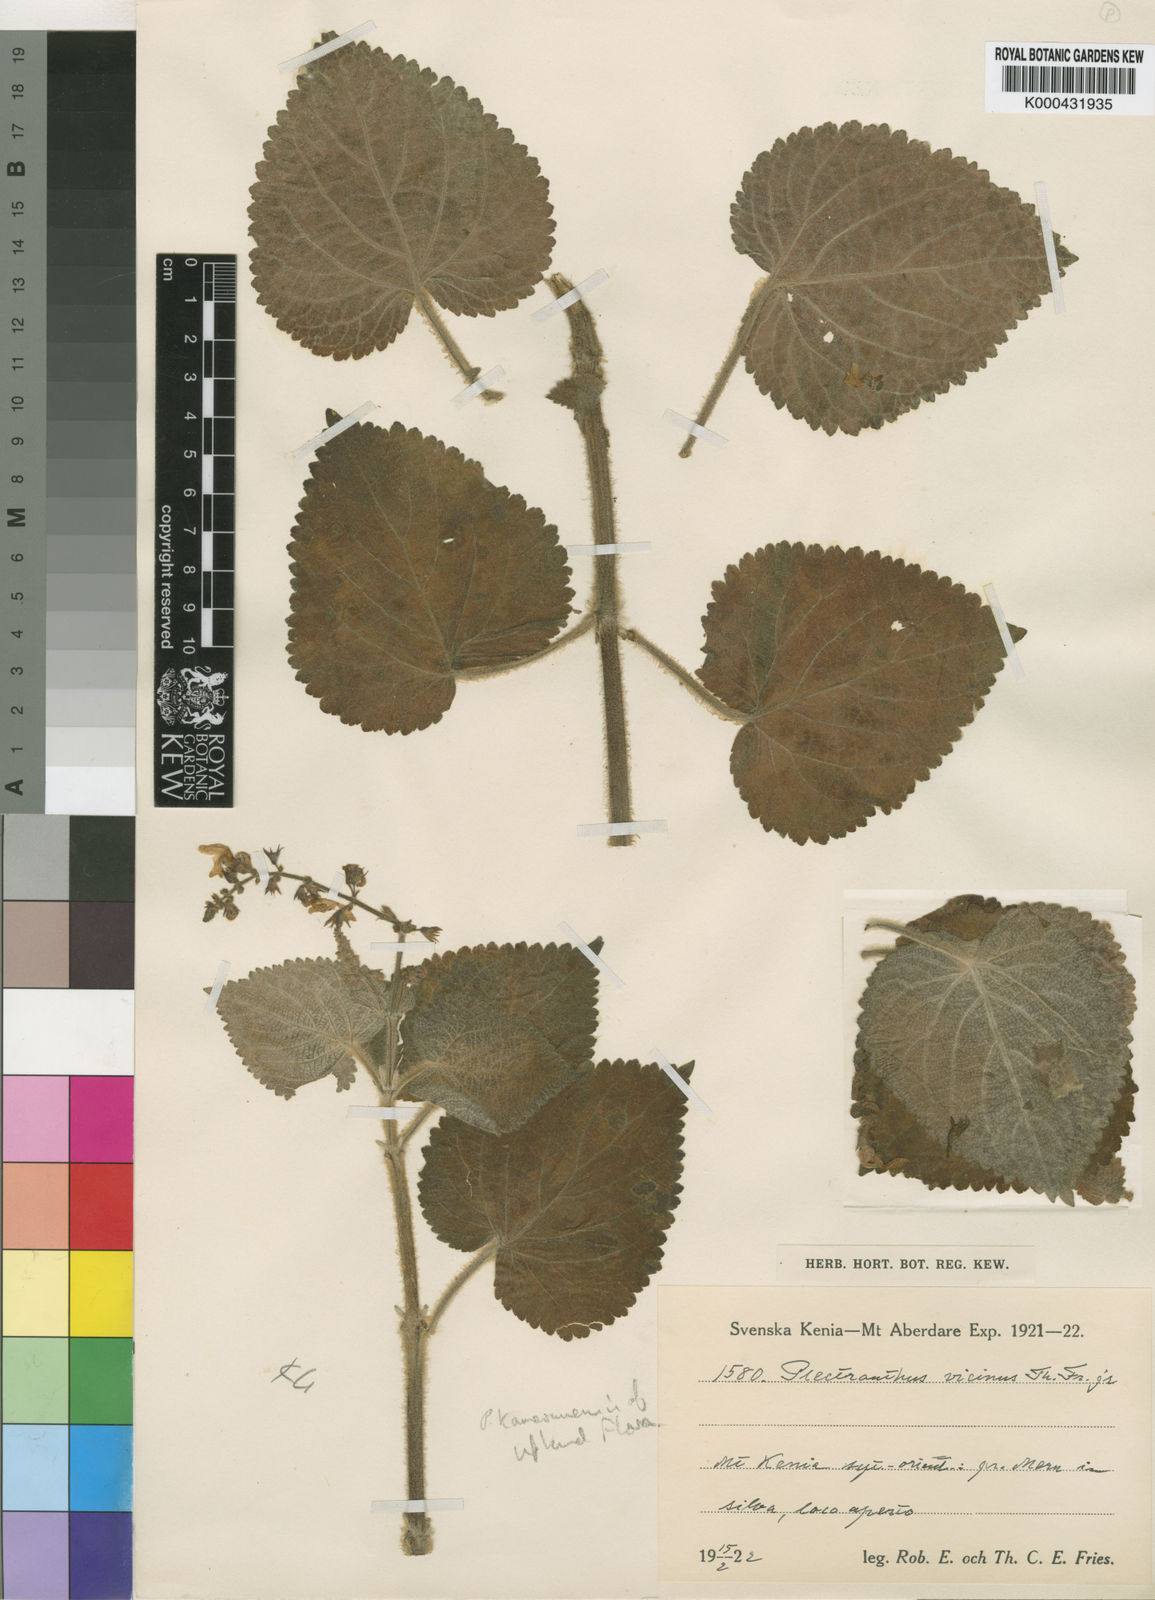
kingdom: Plantae
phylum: Tracheophyta
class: Magnoliopsida
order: Lamiales
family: Lamiaceae
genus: Plectranthus
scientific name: Plectranthus
